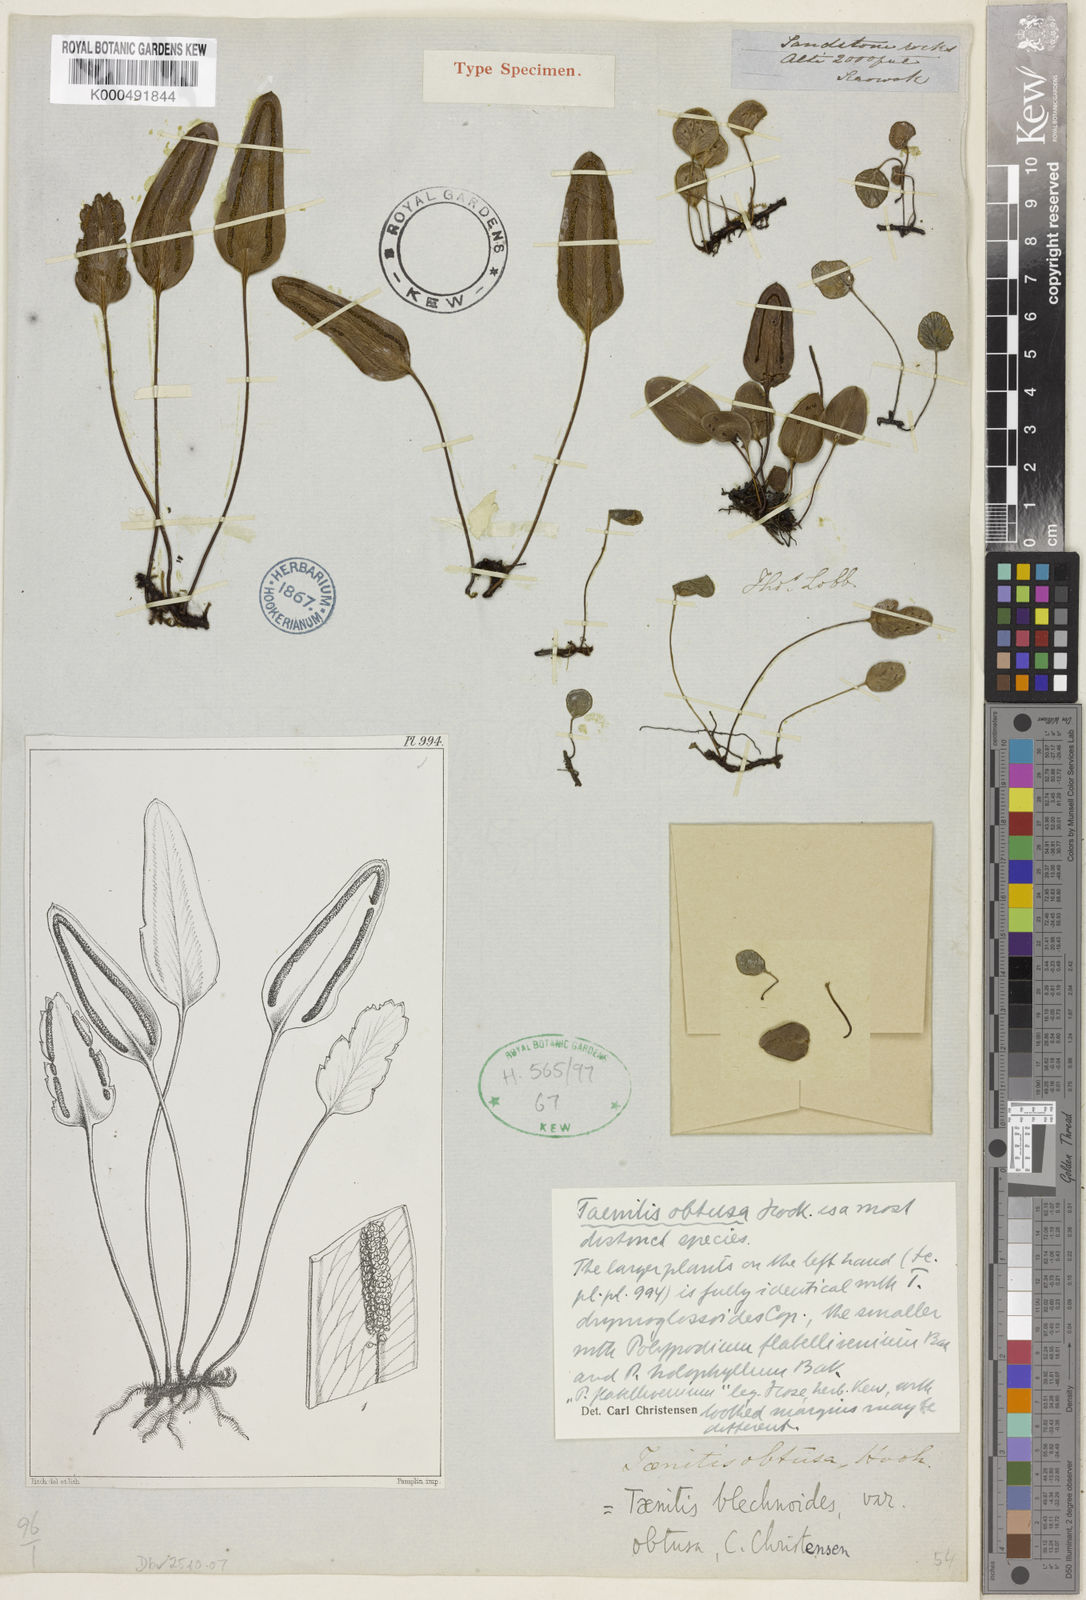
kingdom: Plantae
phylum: Tracheophyta
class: Polypodiopsida
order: Polypodiales
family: Pteridaceae
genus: Taenitis
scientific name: Taenitis obtusa
